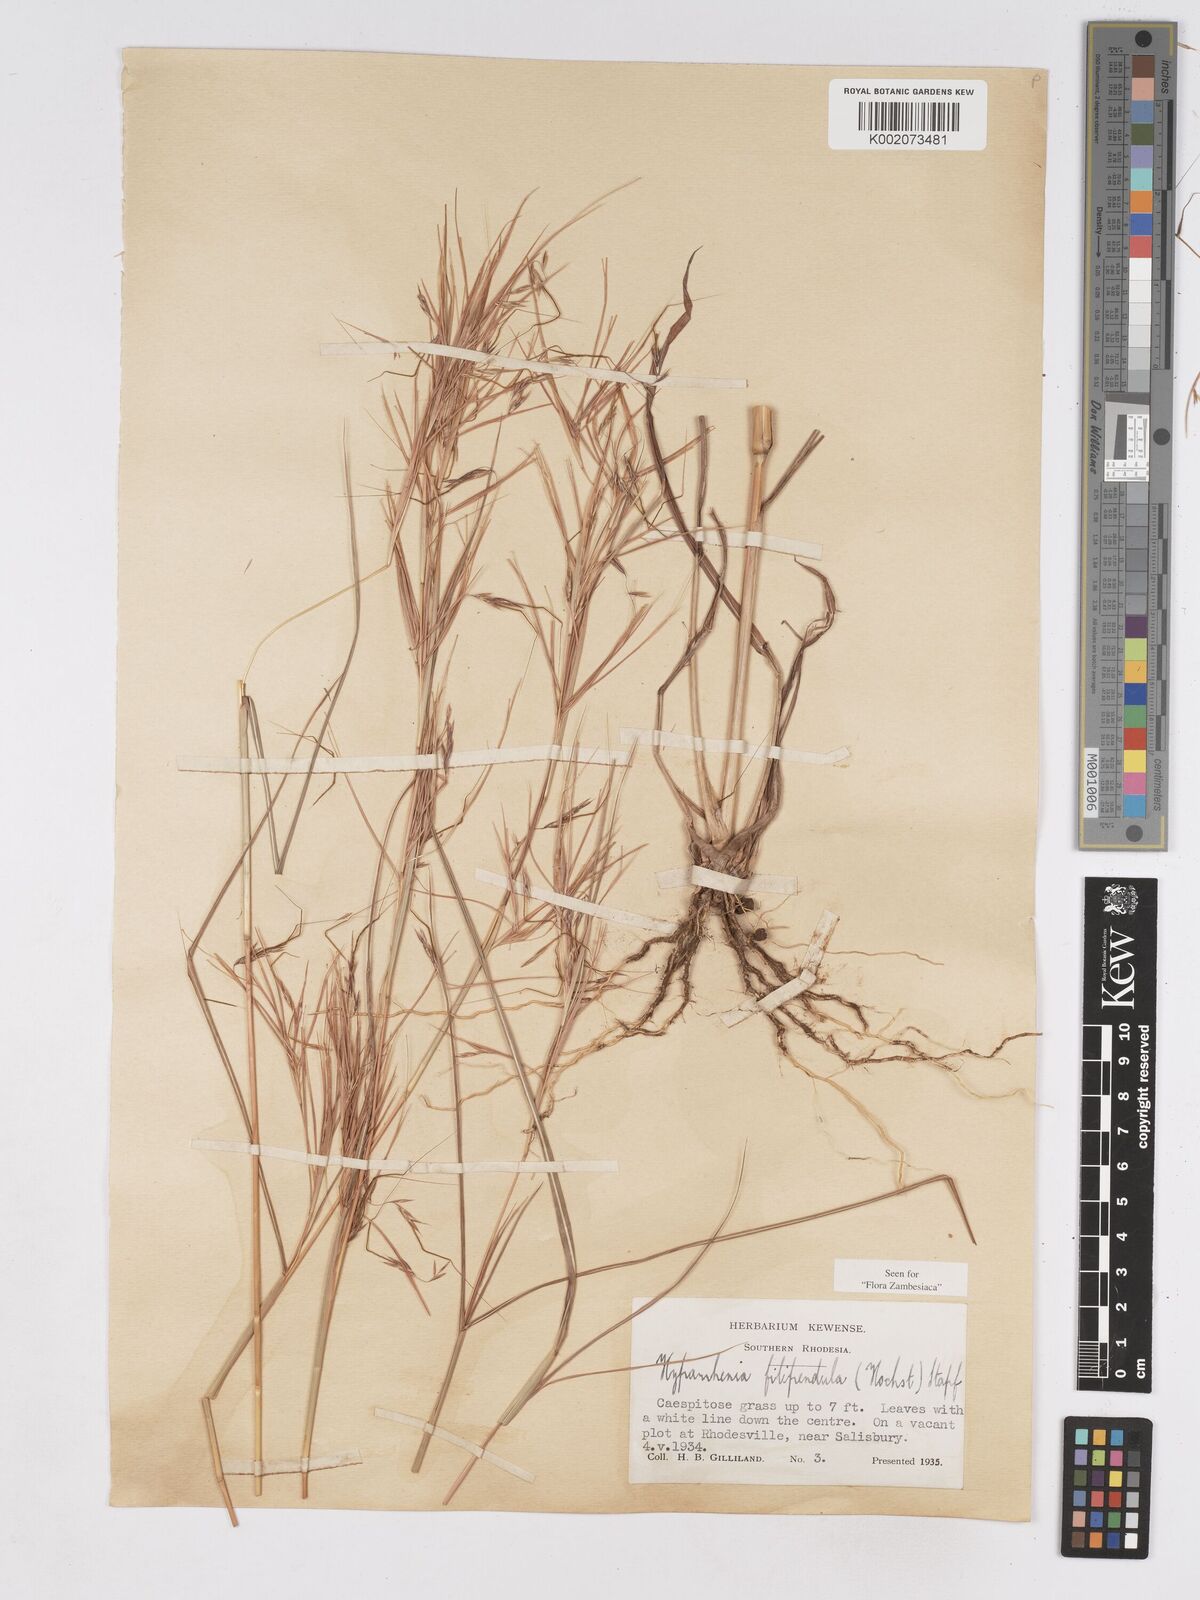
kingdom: Plantae
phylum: Tracheophyta
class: Liliopsida
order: Poales
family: Poaceae
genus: Hyparrhenia
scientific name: Hyparrhenia filipendula
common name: Tambookie grass
